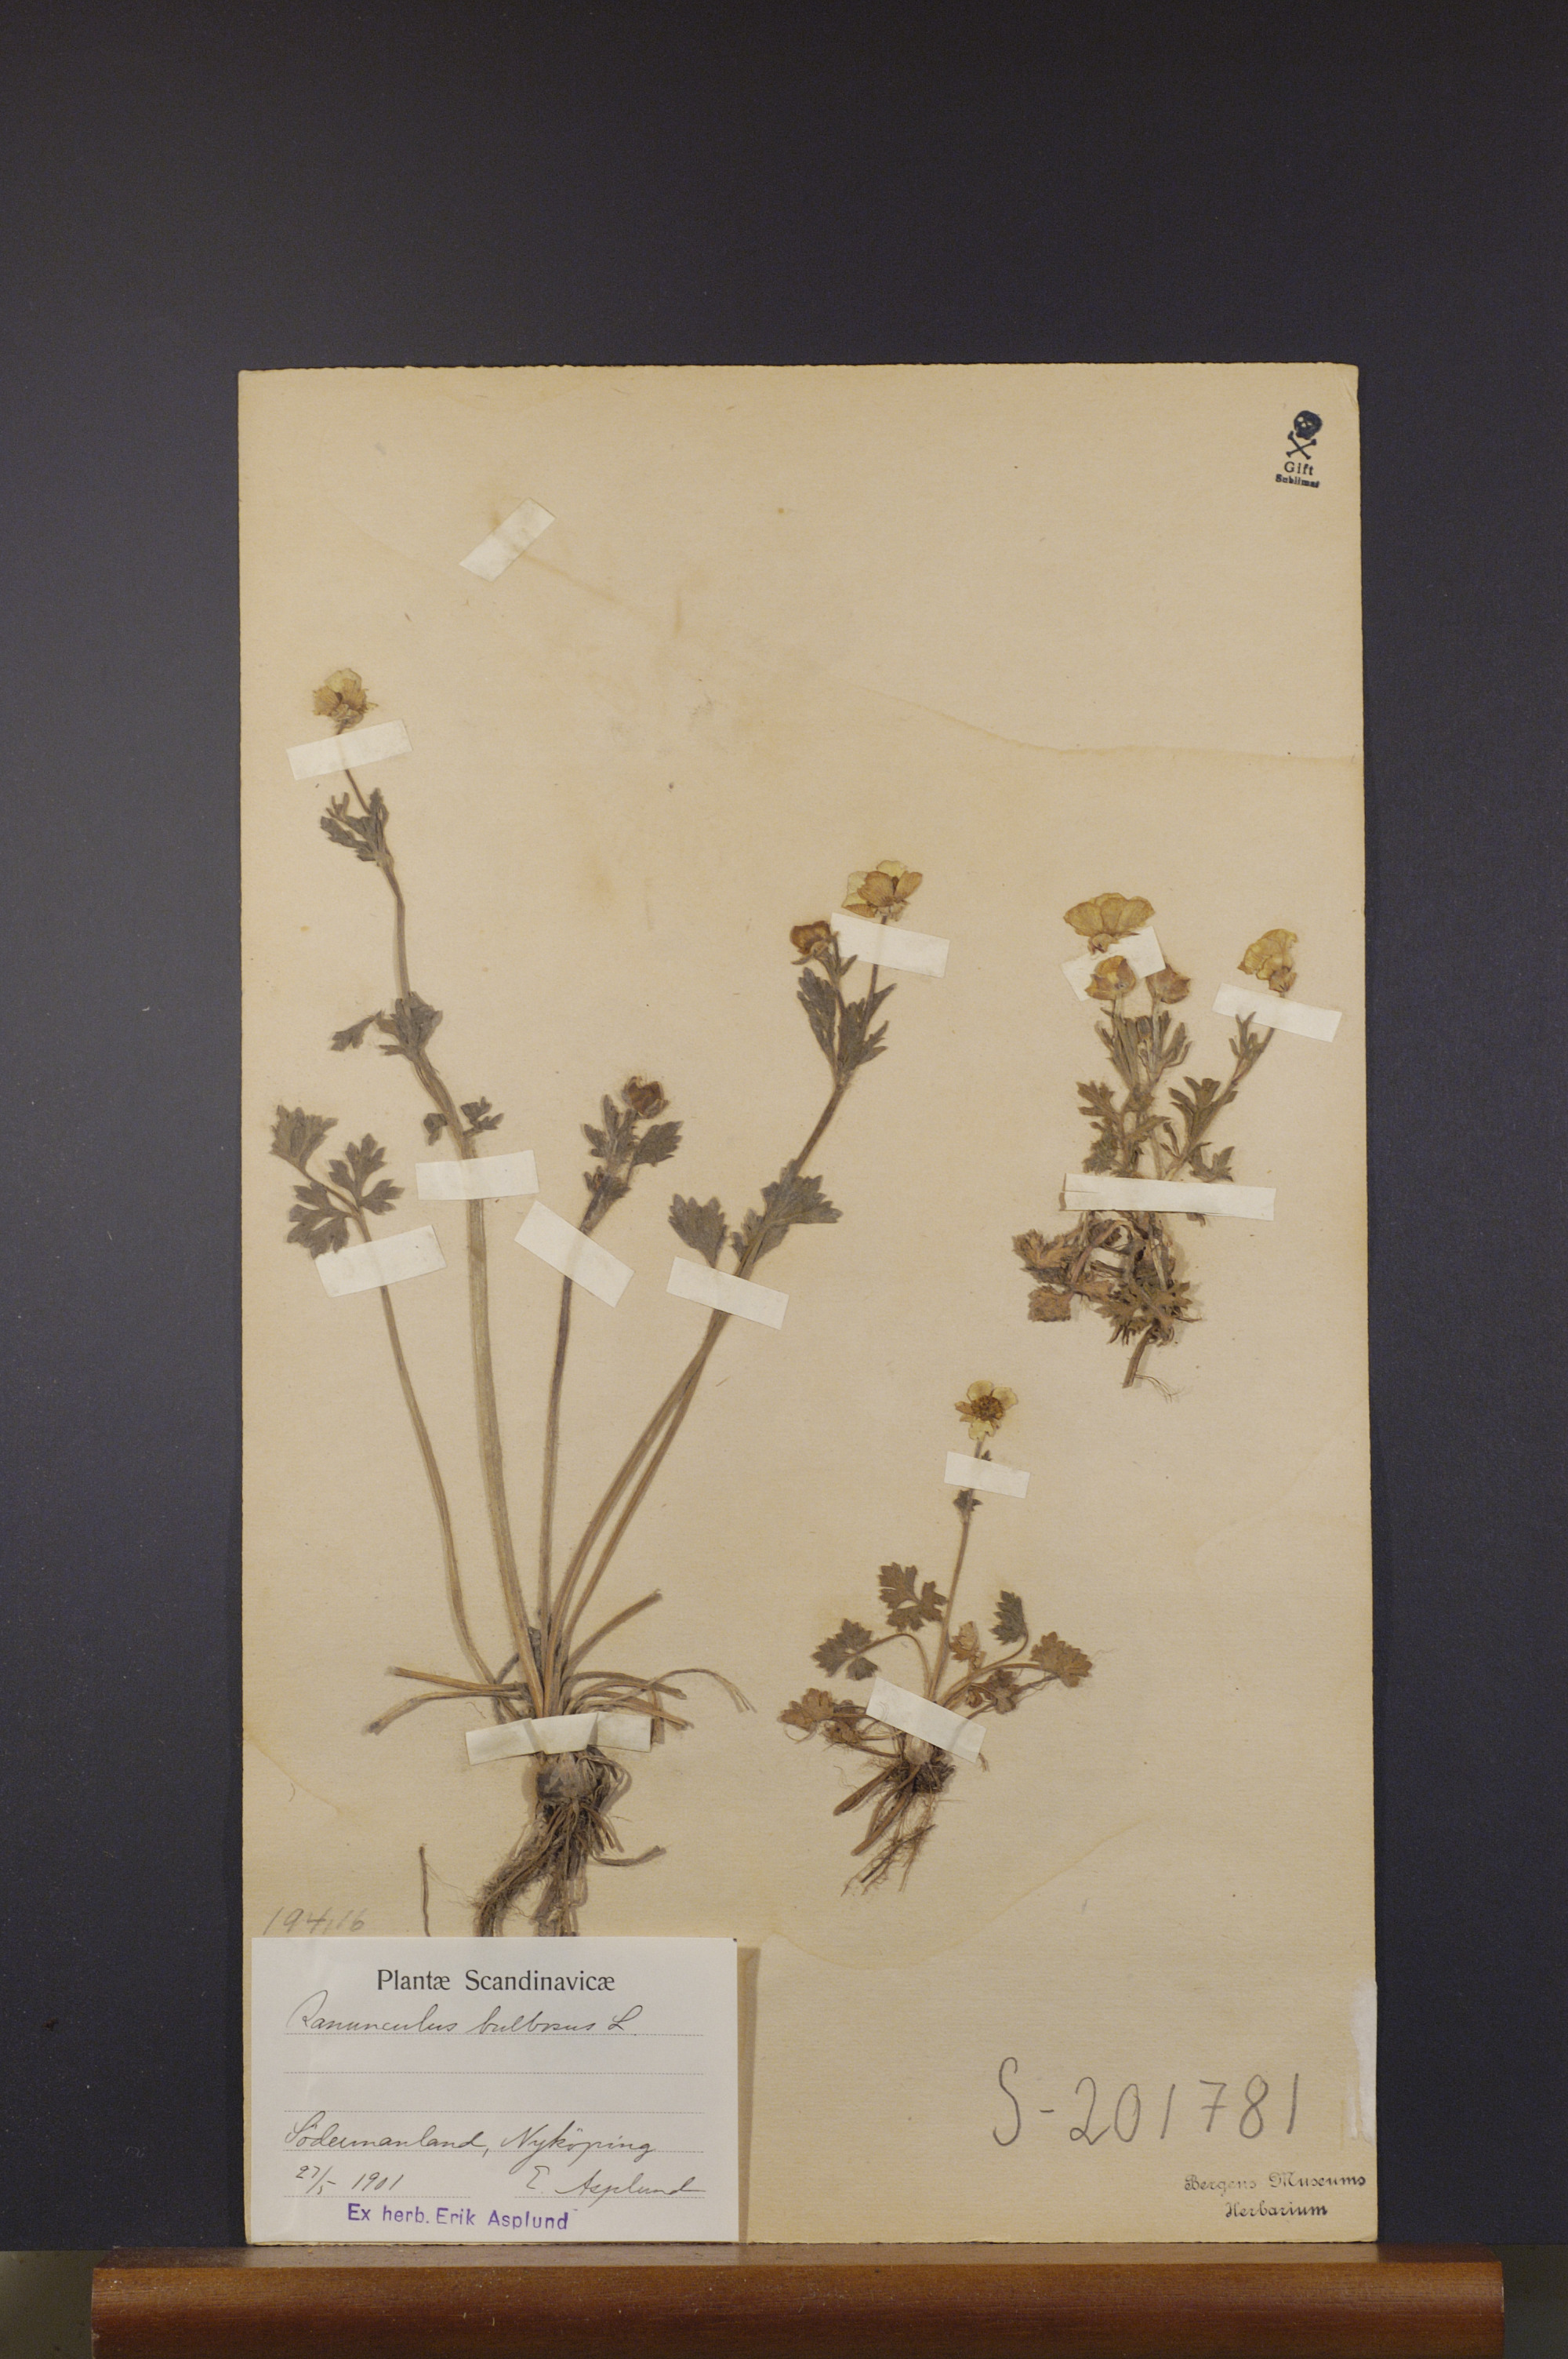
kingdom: Plantae
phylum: Tracheophyta
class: Magnoliopsida
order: Ranunculales
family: Ranunculaceae
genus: Ranunculus
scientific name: Ranunculus bulbosus
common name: Bulbous buttercup
